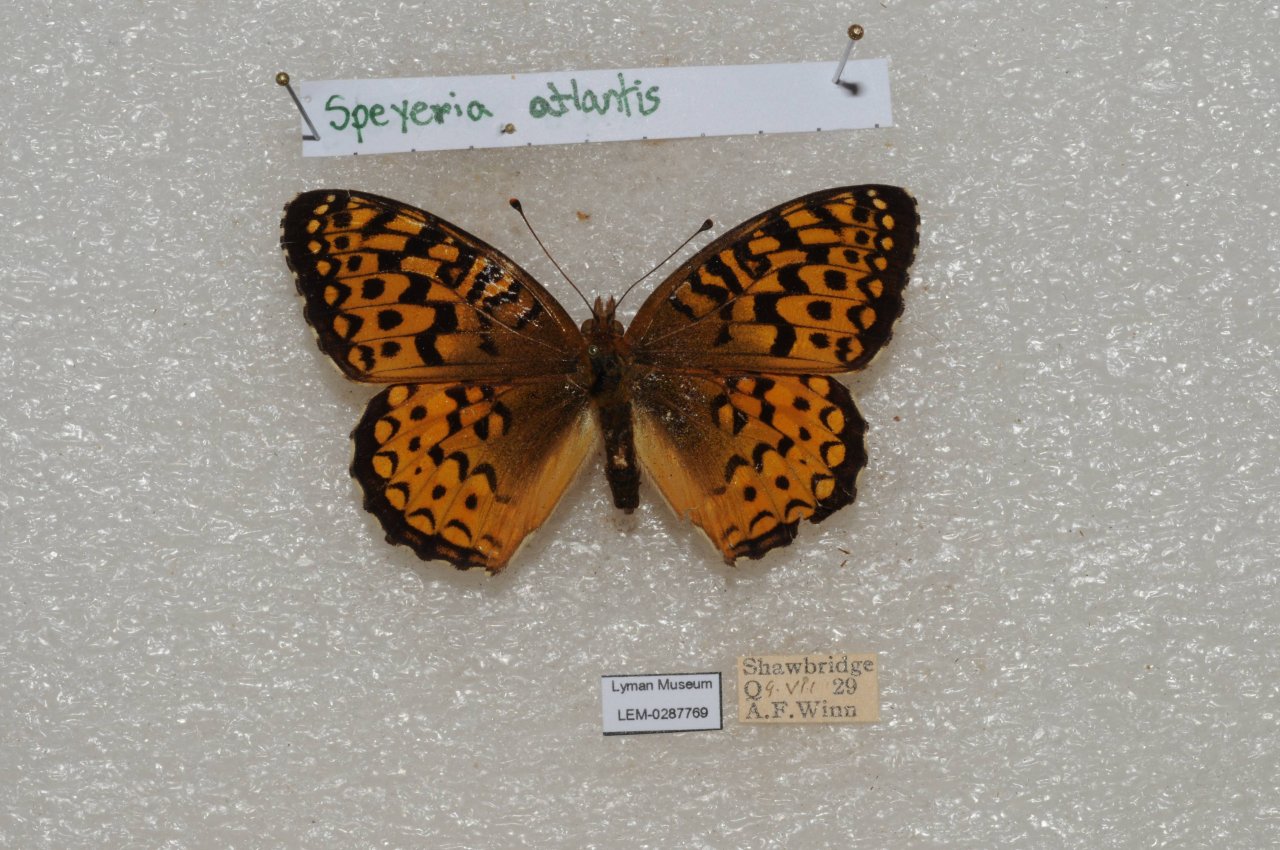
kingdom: Animalia
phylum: Arthropoda
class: Insecta
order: Lepidoptera
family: Nymphalidae
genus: Speyeria
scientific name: Speyeria atlantis
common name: Atlantis Fritillary
